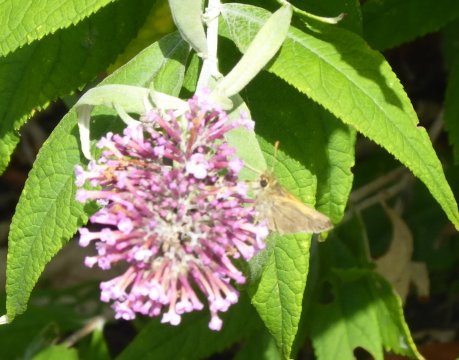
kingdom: Animalia
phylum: Arthropoda
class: Insecta
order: Lepidoptera
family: Hesperiidae
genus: Polites
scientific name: Polites themistocles
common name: Tawny-edged Skipper
